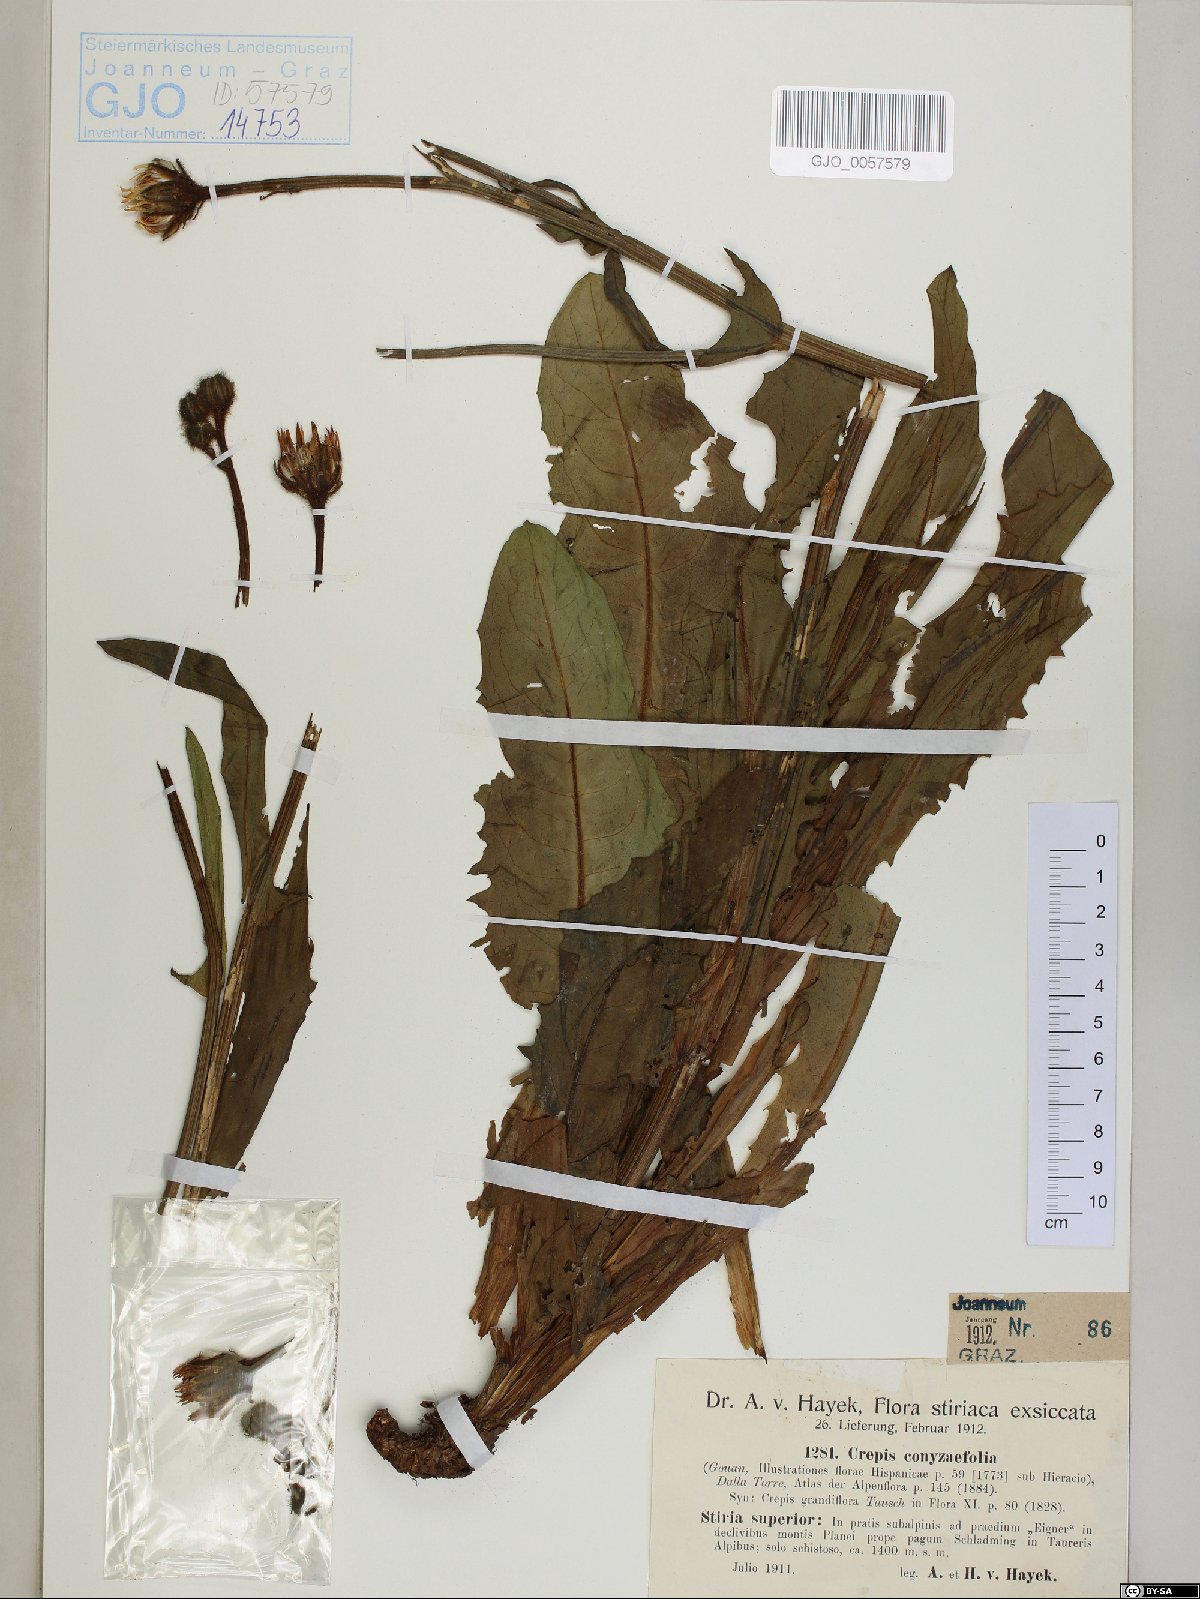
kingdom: Plantae
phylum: Tracheophyta
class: Magnoliopsida
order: Asterales
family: Asteraceae
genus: Crepis
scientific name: Crepis blattarioides
